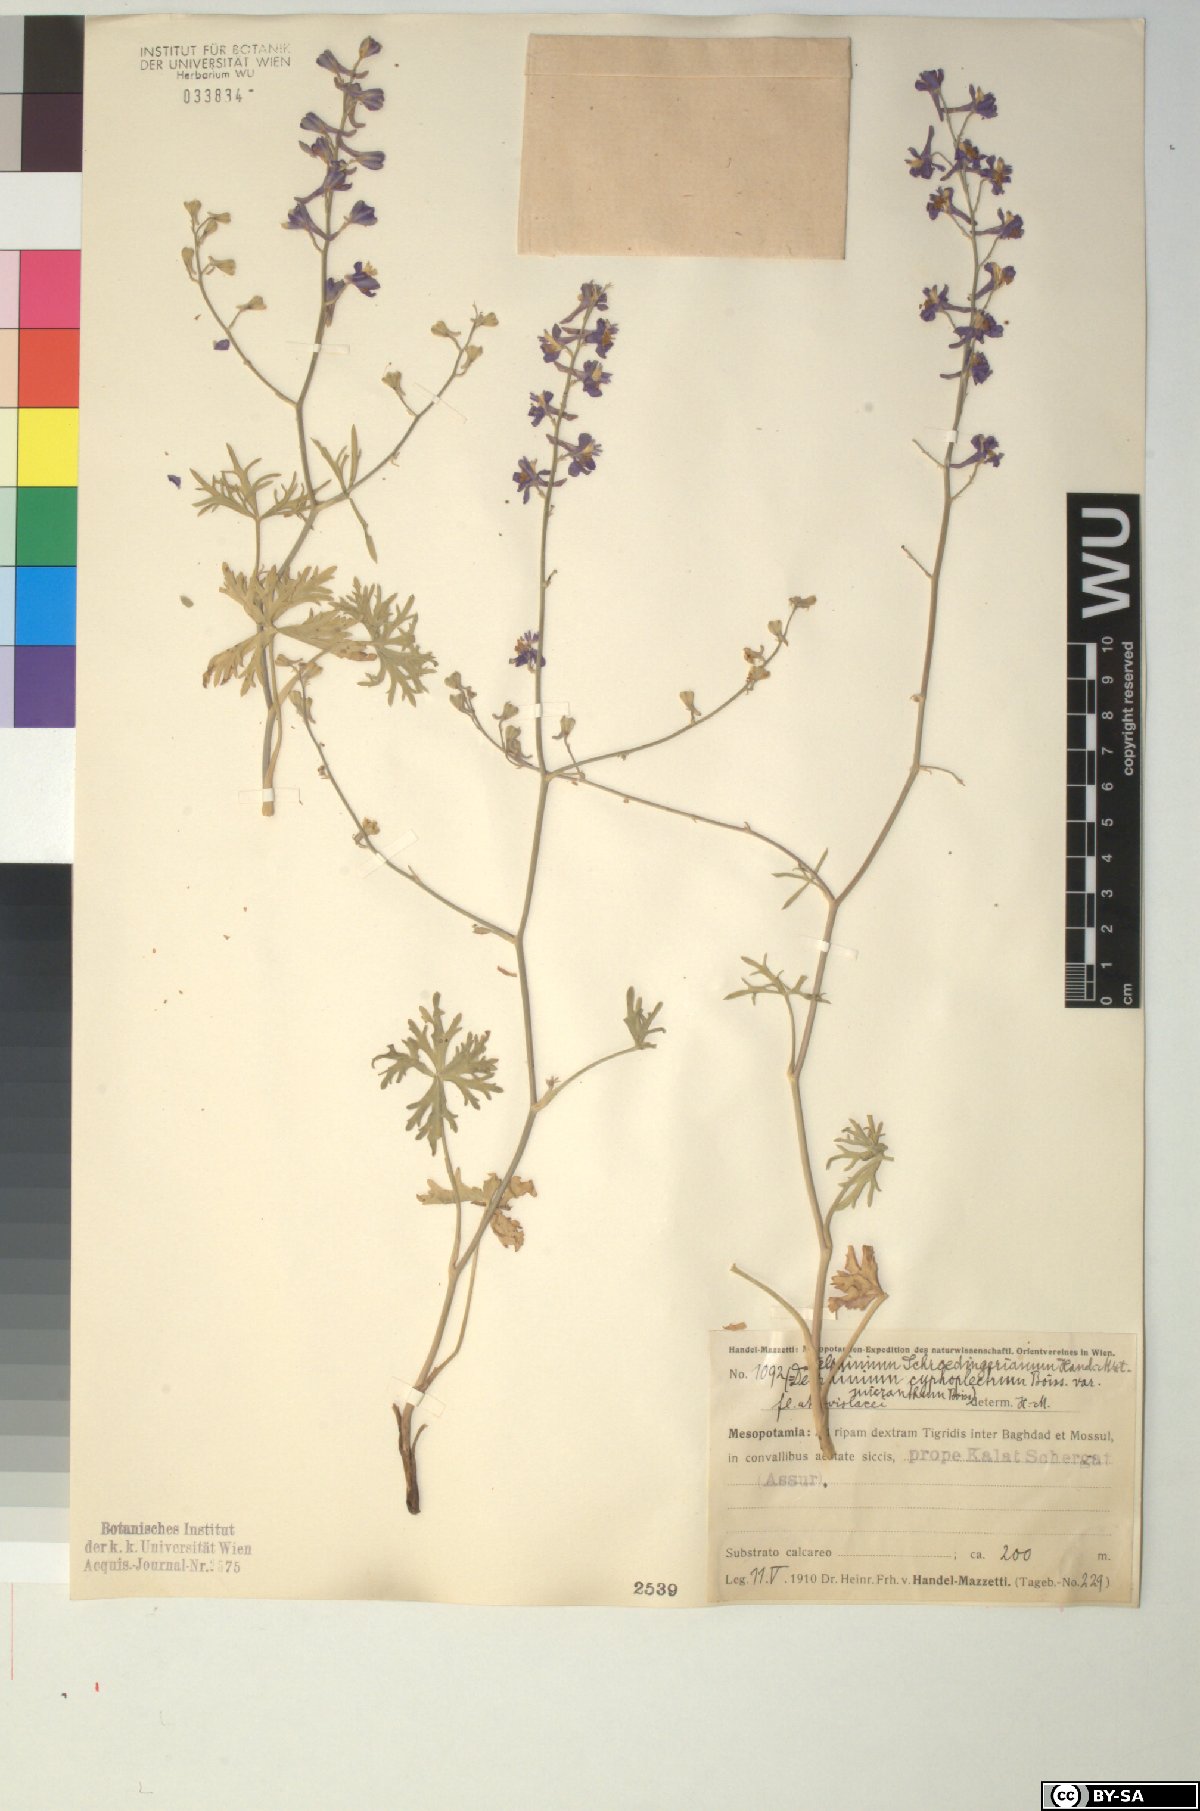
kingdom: Plantae
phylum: Tracheophyta
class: Magnoliopsida
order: Ranunculales
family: Ranunculaceae
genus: Delphinium
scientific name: Delphinium cyphoplectrum
